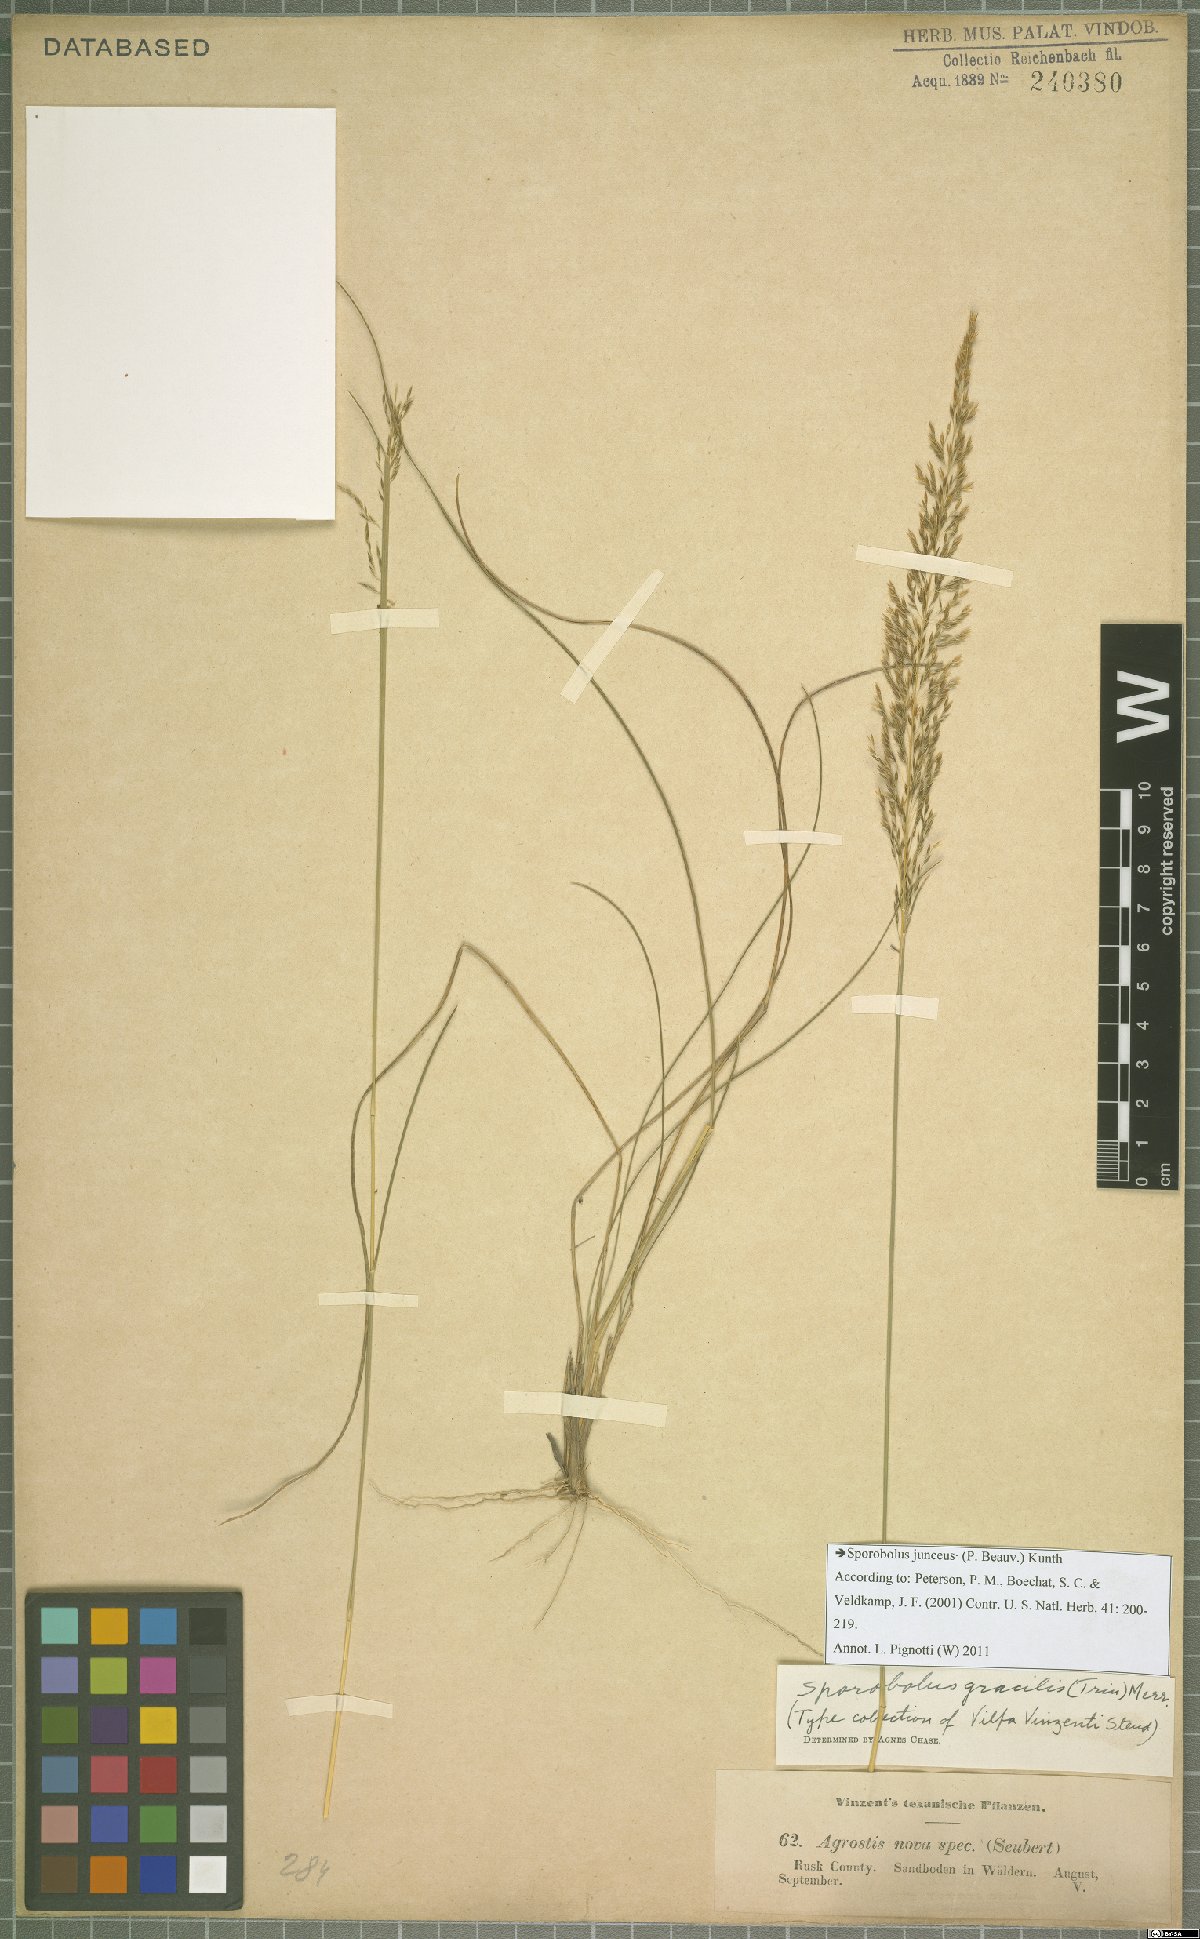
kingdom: Plantae
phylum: Tracheophyta
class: Liliopsida
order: Poales
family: Poaceae
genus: Sporobolus
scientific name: Sporobolus junceus
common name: Lizard grass
